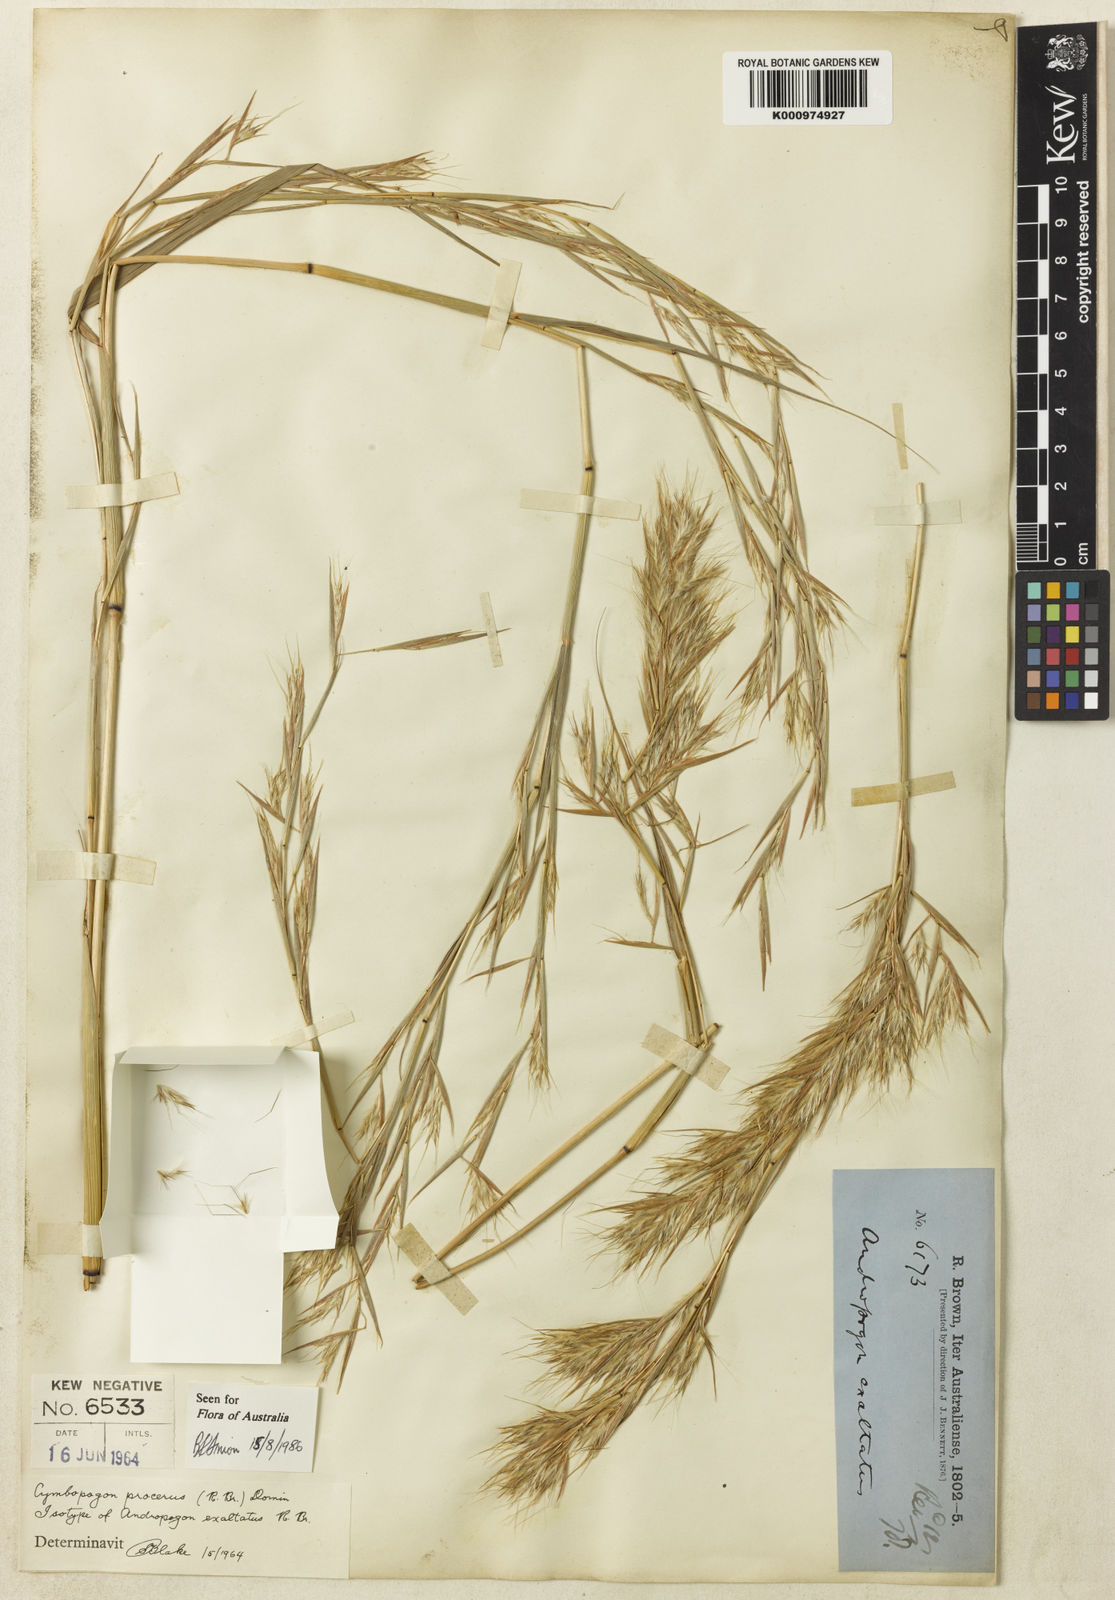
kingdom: Plantae
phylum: Tracheophyta
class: Liliopsida
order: Poales
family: Poaceae
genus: Cymbopogon
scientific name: Cymbopogon procerus
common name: Lemongrass
